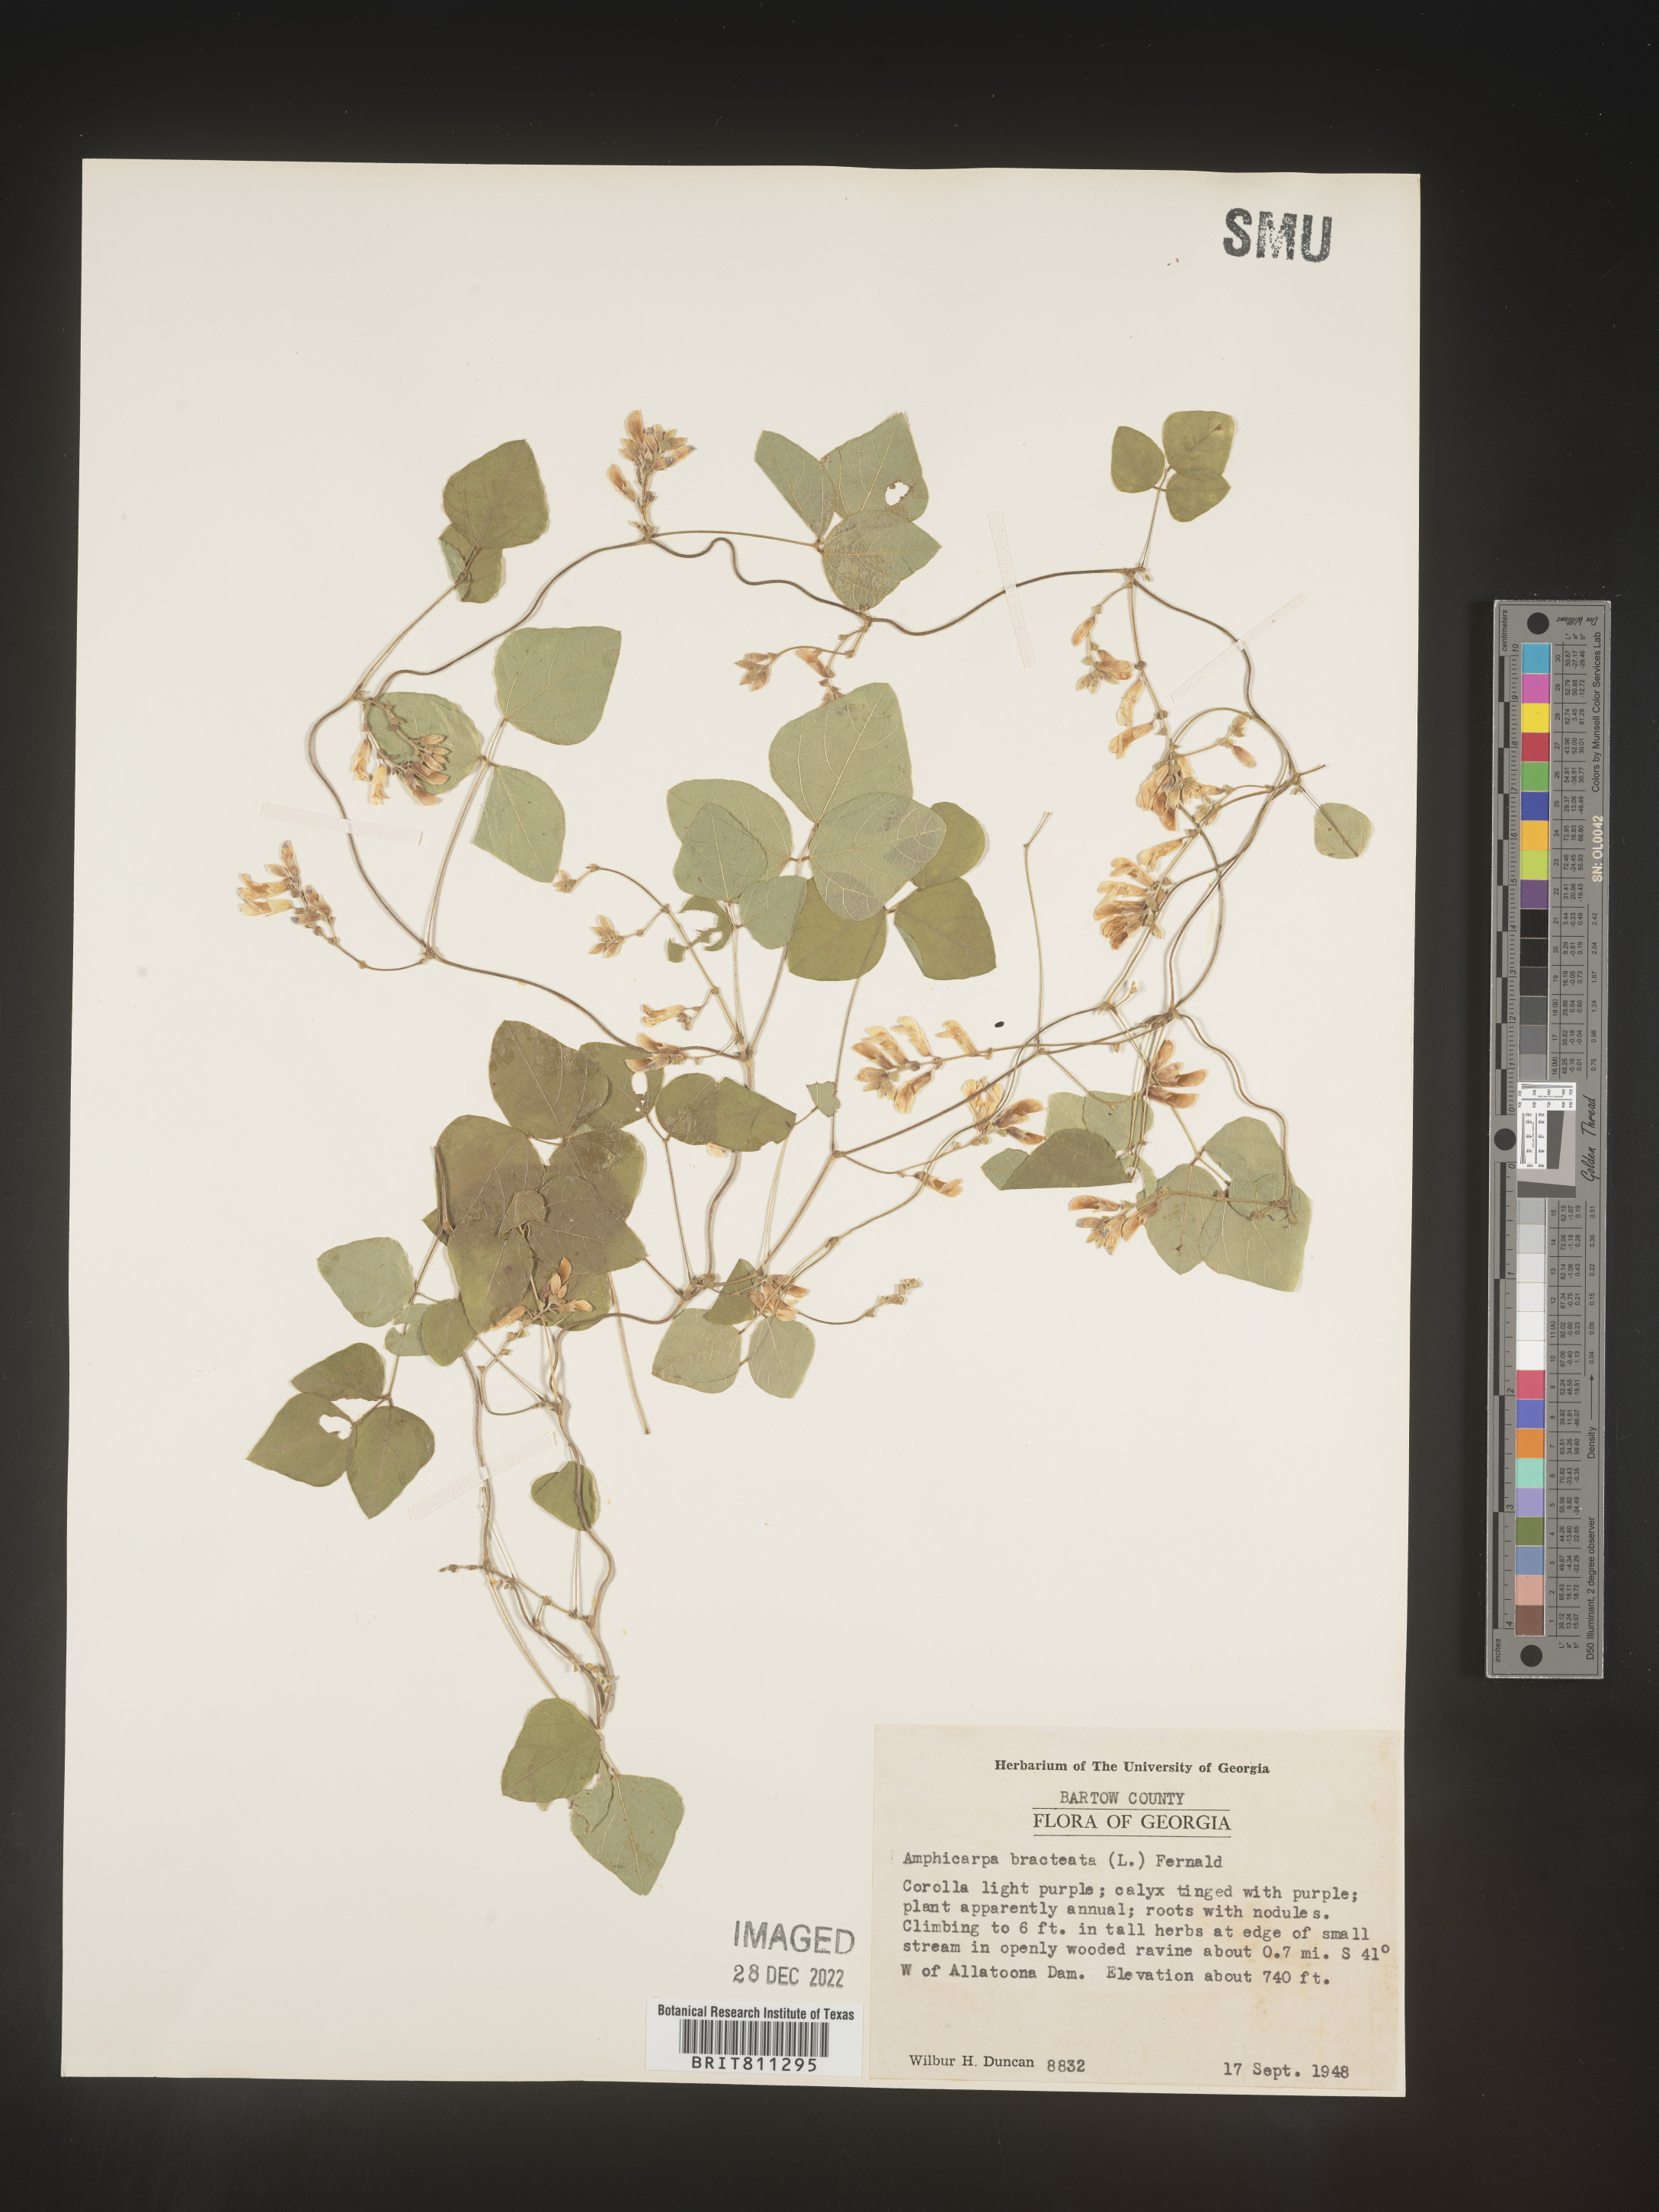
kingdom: Plantae
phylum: Tracheophyta
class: Magnoliopsida
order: Fabales
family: Fabaceae
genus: Amphicarpaea
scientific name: Amphicarpaea bracteata
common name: American hog peanut
